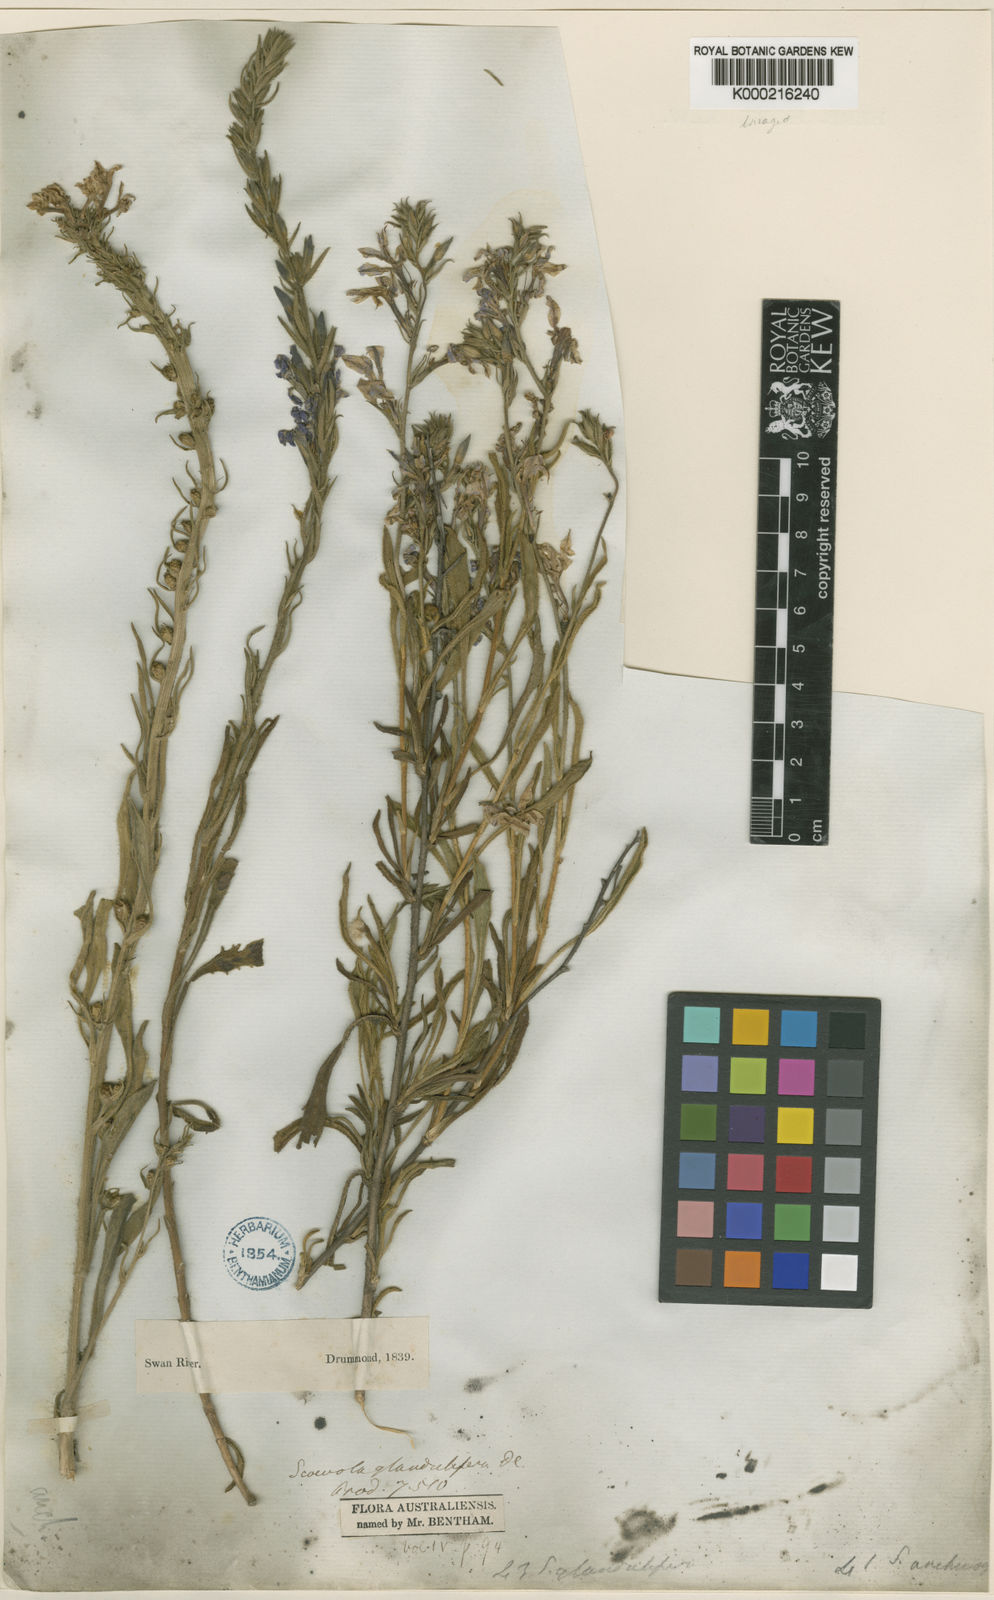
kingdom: Plantae
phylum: Tracheophyta
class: Magnoliopsida
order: Asterales
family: Goodeniaceae
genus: Scaevola
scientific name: Scaevola glandulifera
